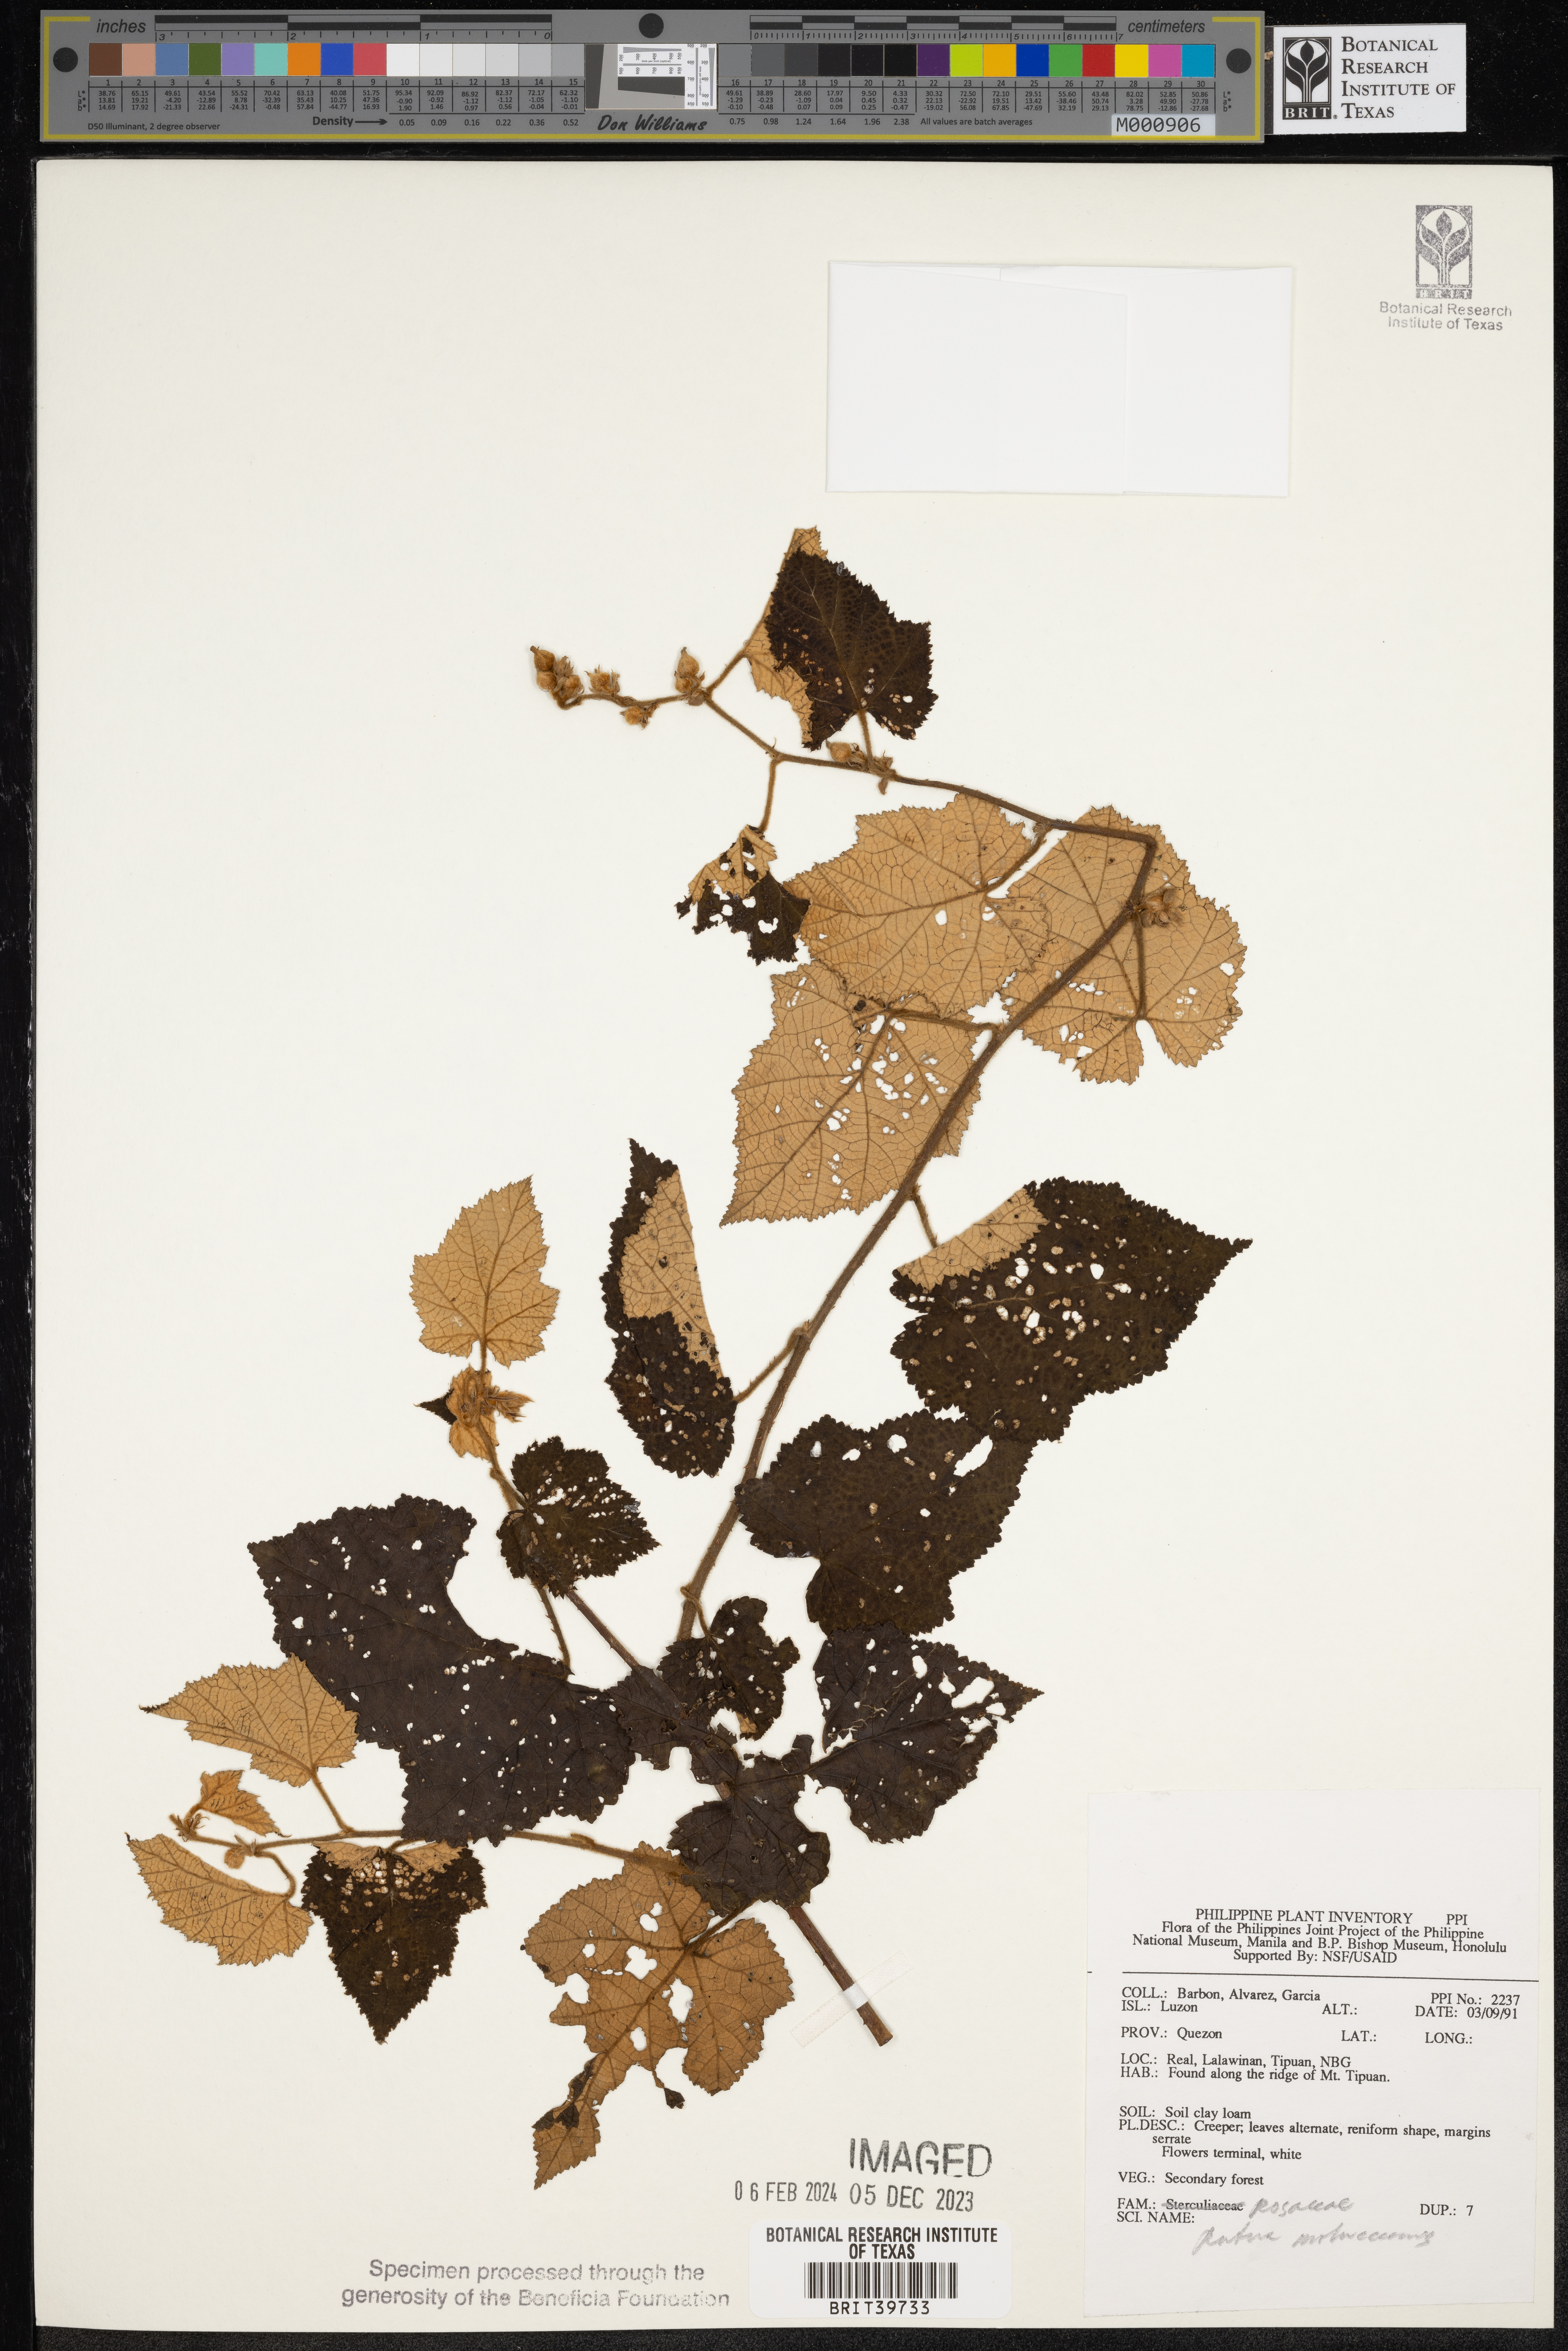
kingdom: Plantae
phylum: Tracheophyta
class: Magnoliopsida
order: Rosales
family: Rosaceae
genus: Rubus
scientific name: Rubus moluccanus
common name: Wild raspberry
